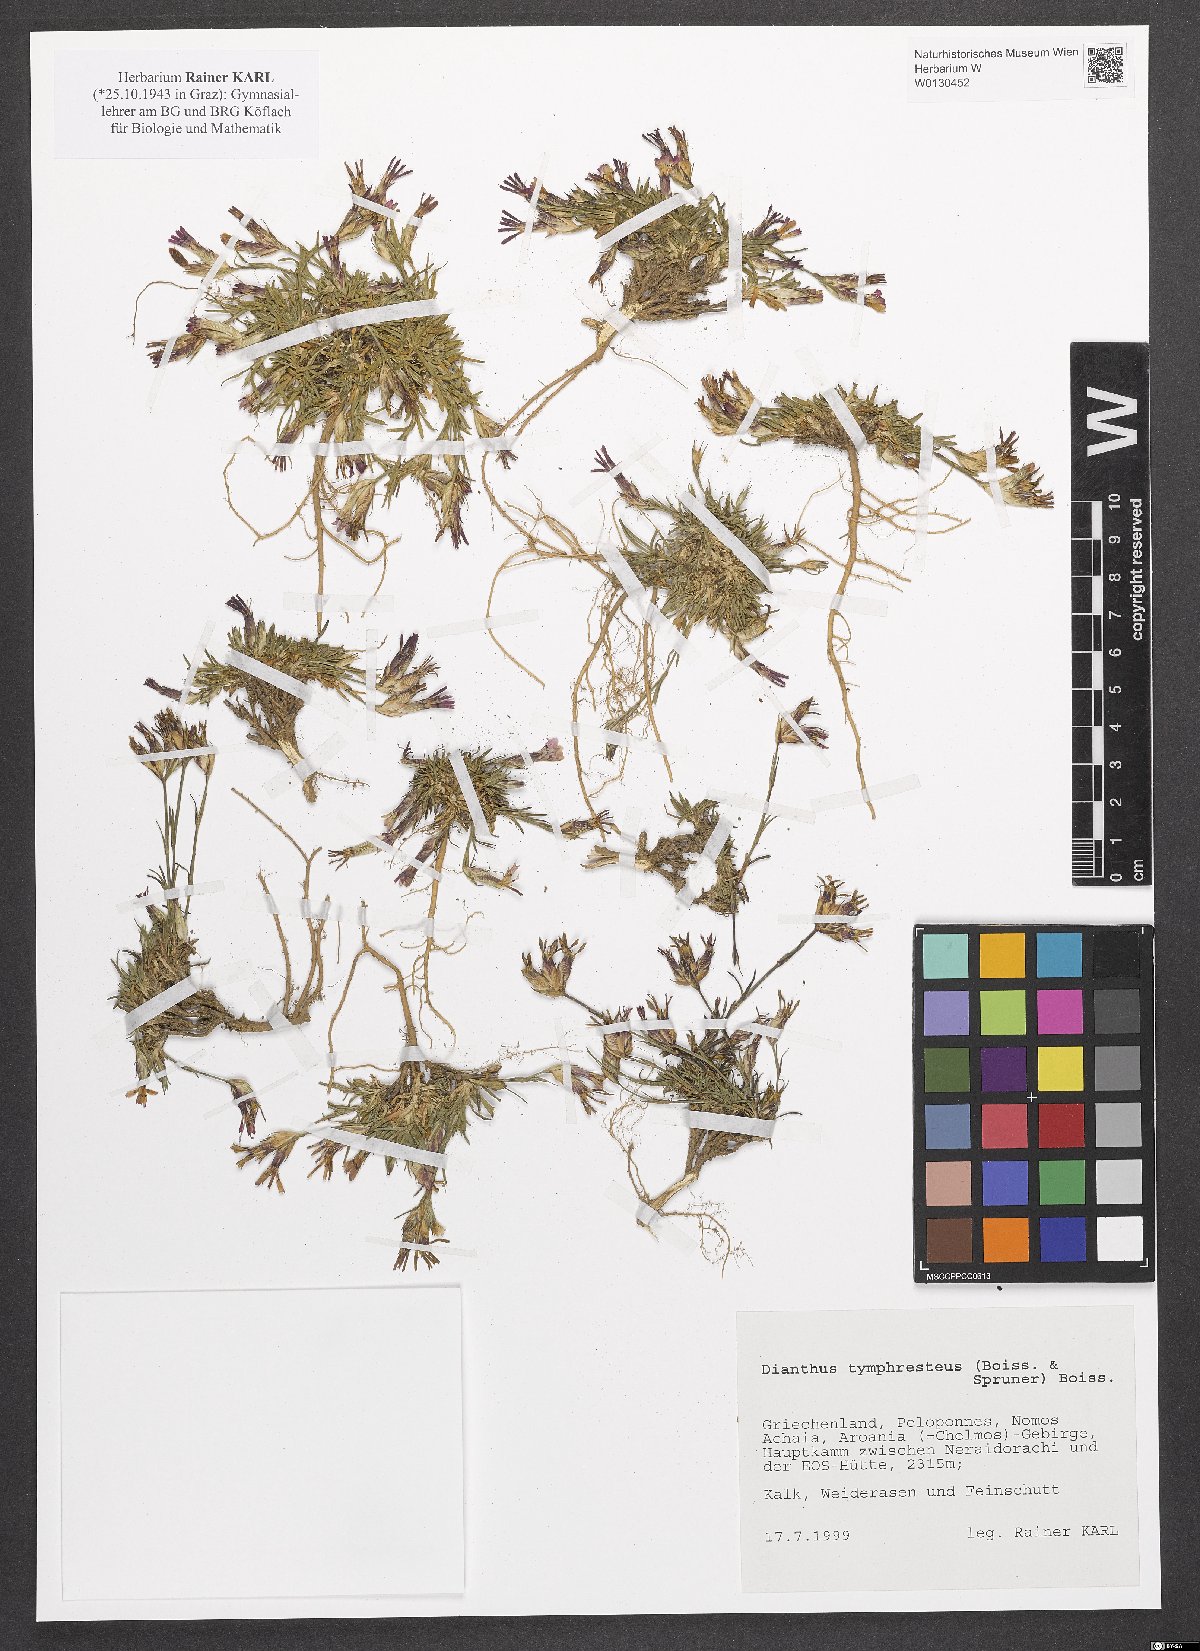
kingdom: Plantae
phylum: Tracheophyta
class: Magnoliopsida
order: Caryophyllales
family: Caryophyllaceae
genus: Dianthus
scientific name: Dianthus tymphresteus
